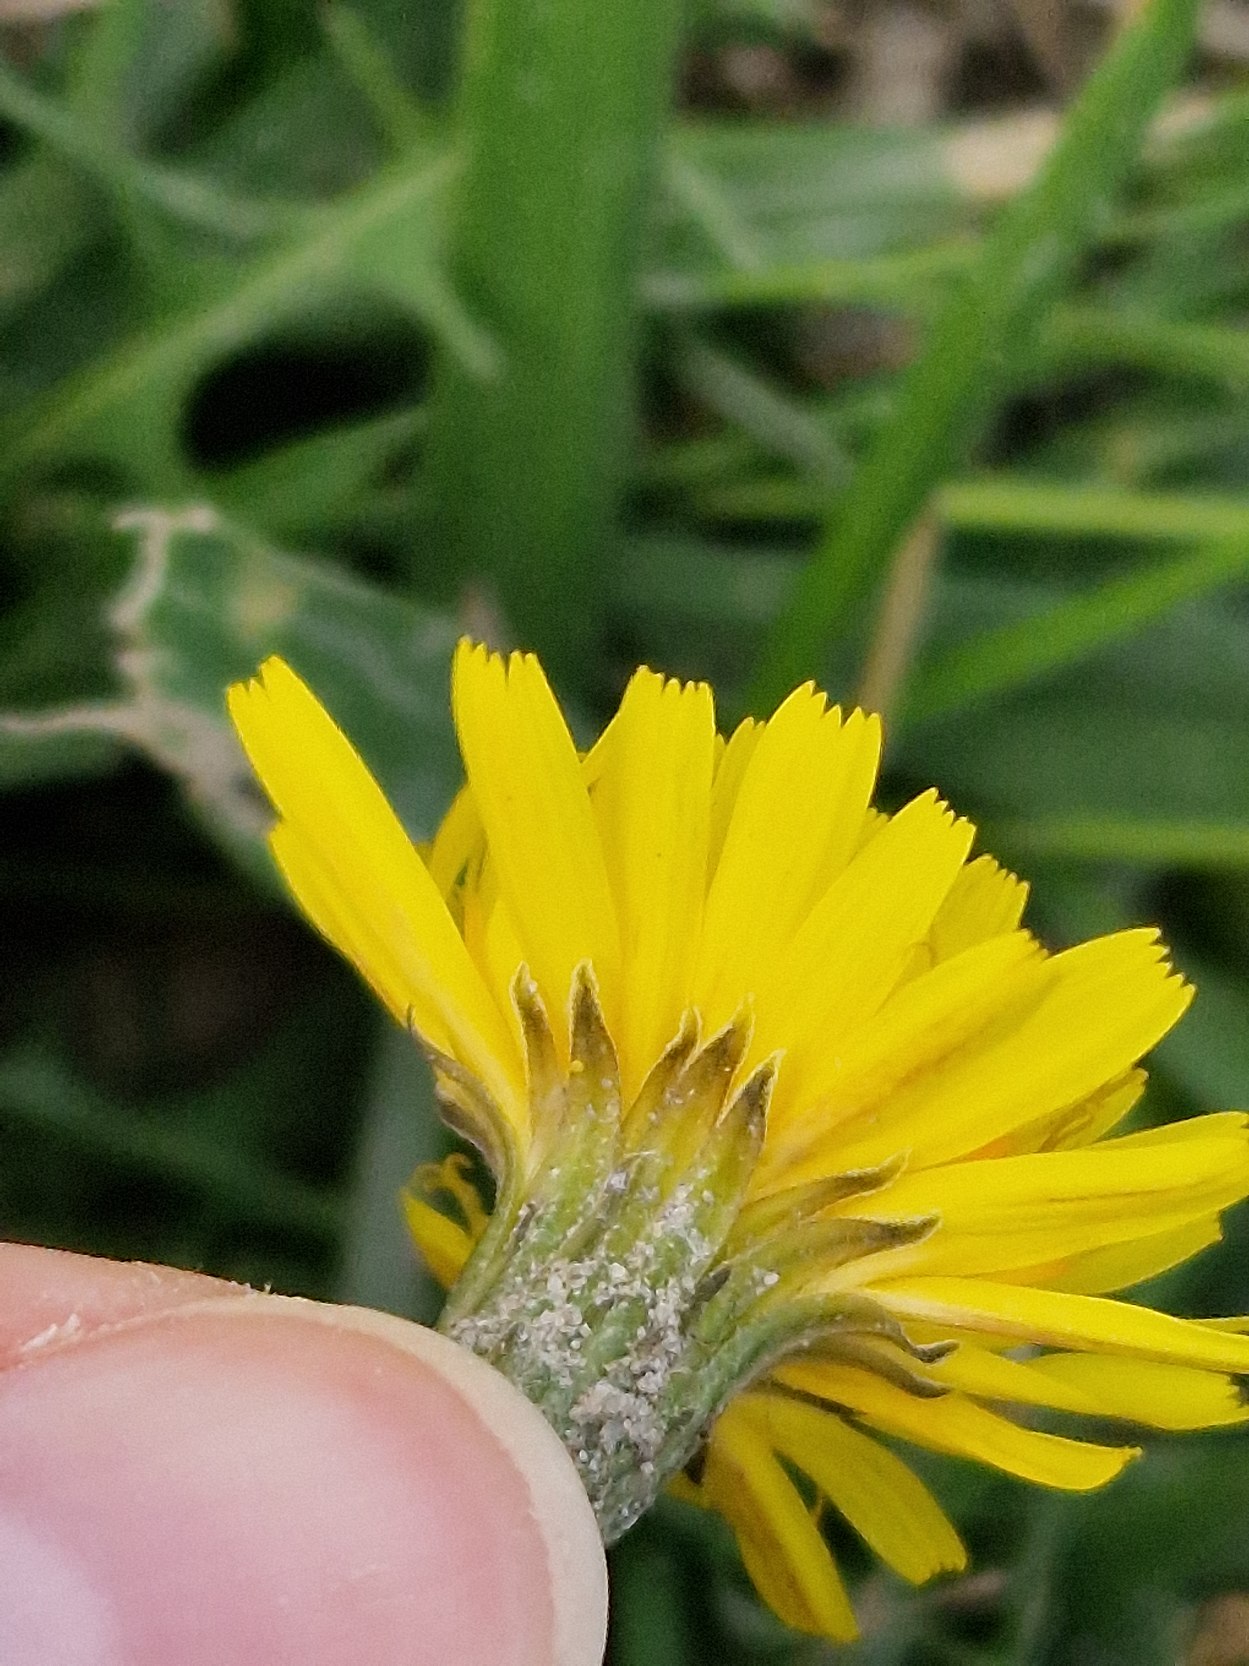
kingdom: Plantae
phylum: Tracheophyta
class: Magnoliopsida
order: Asterales
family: Asteraceae
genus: Scorzoneroides
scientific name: Scorzoneroides autumnalis
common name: Høst-borst
